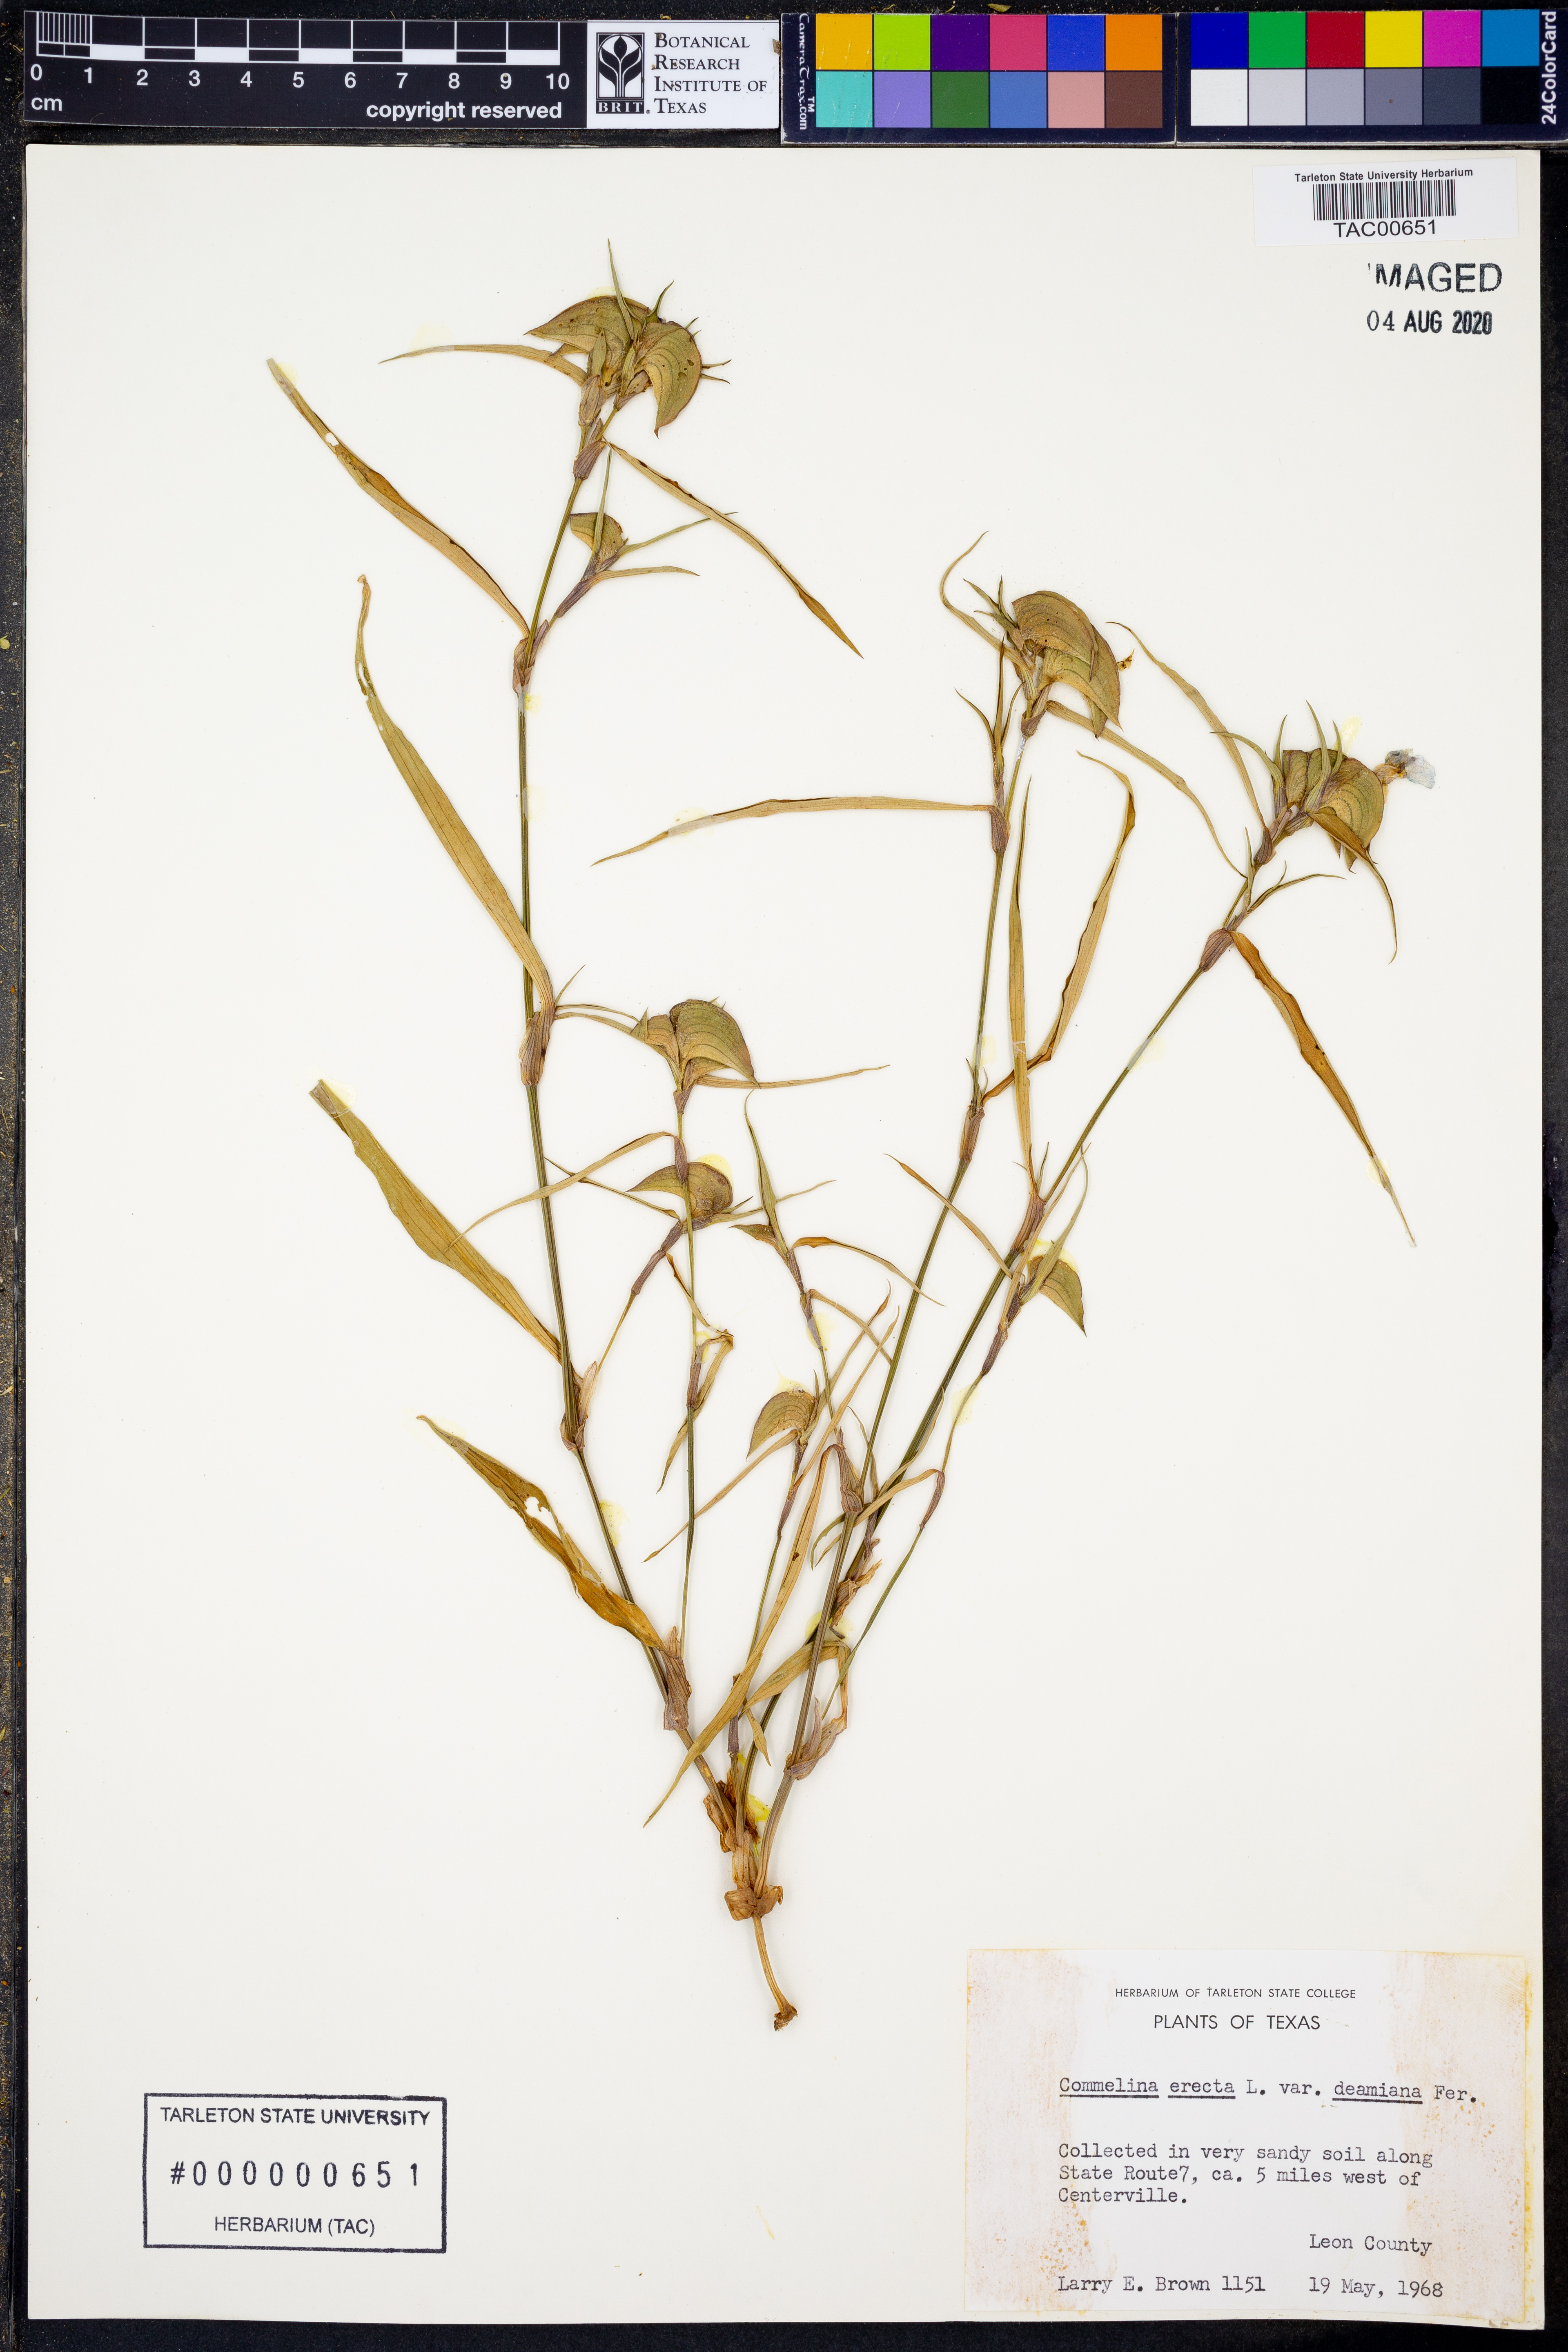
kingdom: Plantae
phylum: Tracheophyta
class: Liliopsida
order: Commelinales
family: Commelinaceae
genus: Commelina
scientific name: Commelina erecta
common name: Blousel blommetjie
